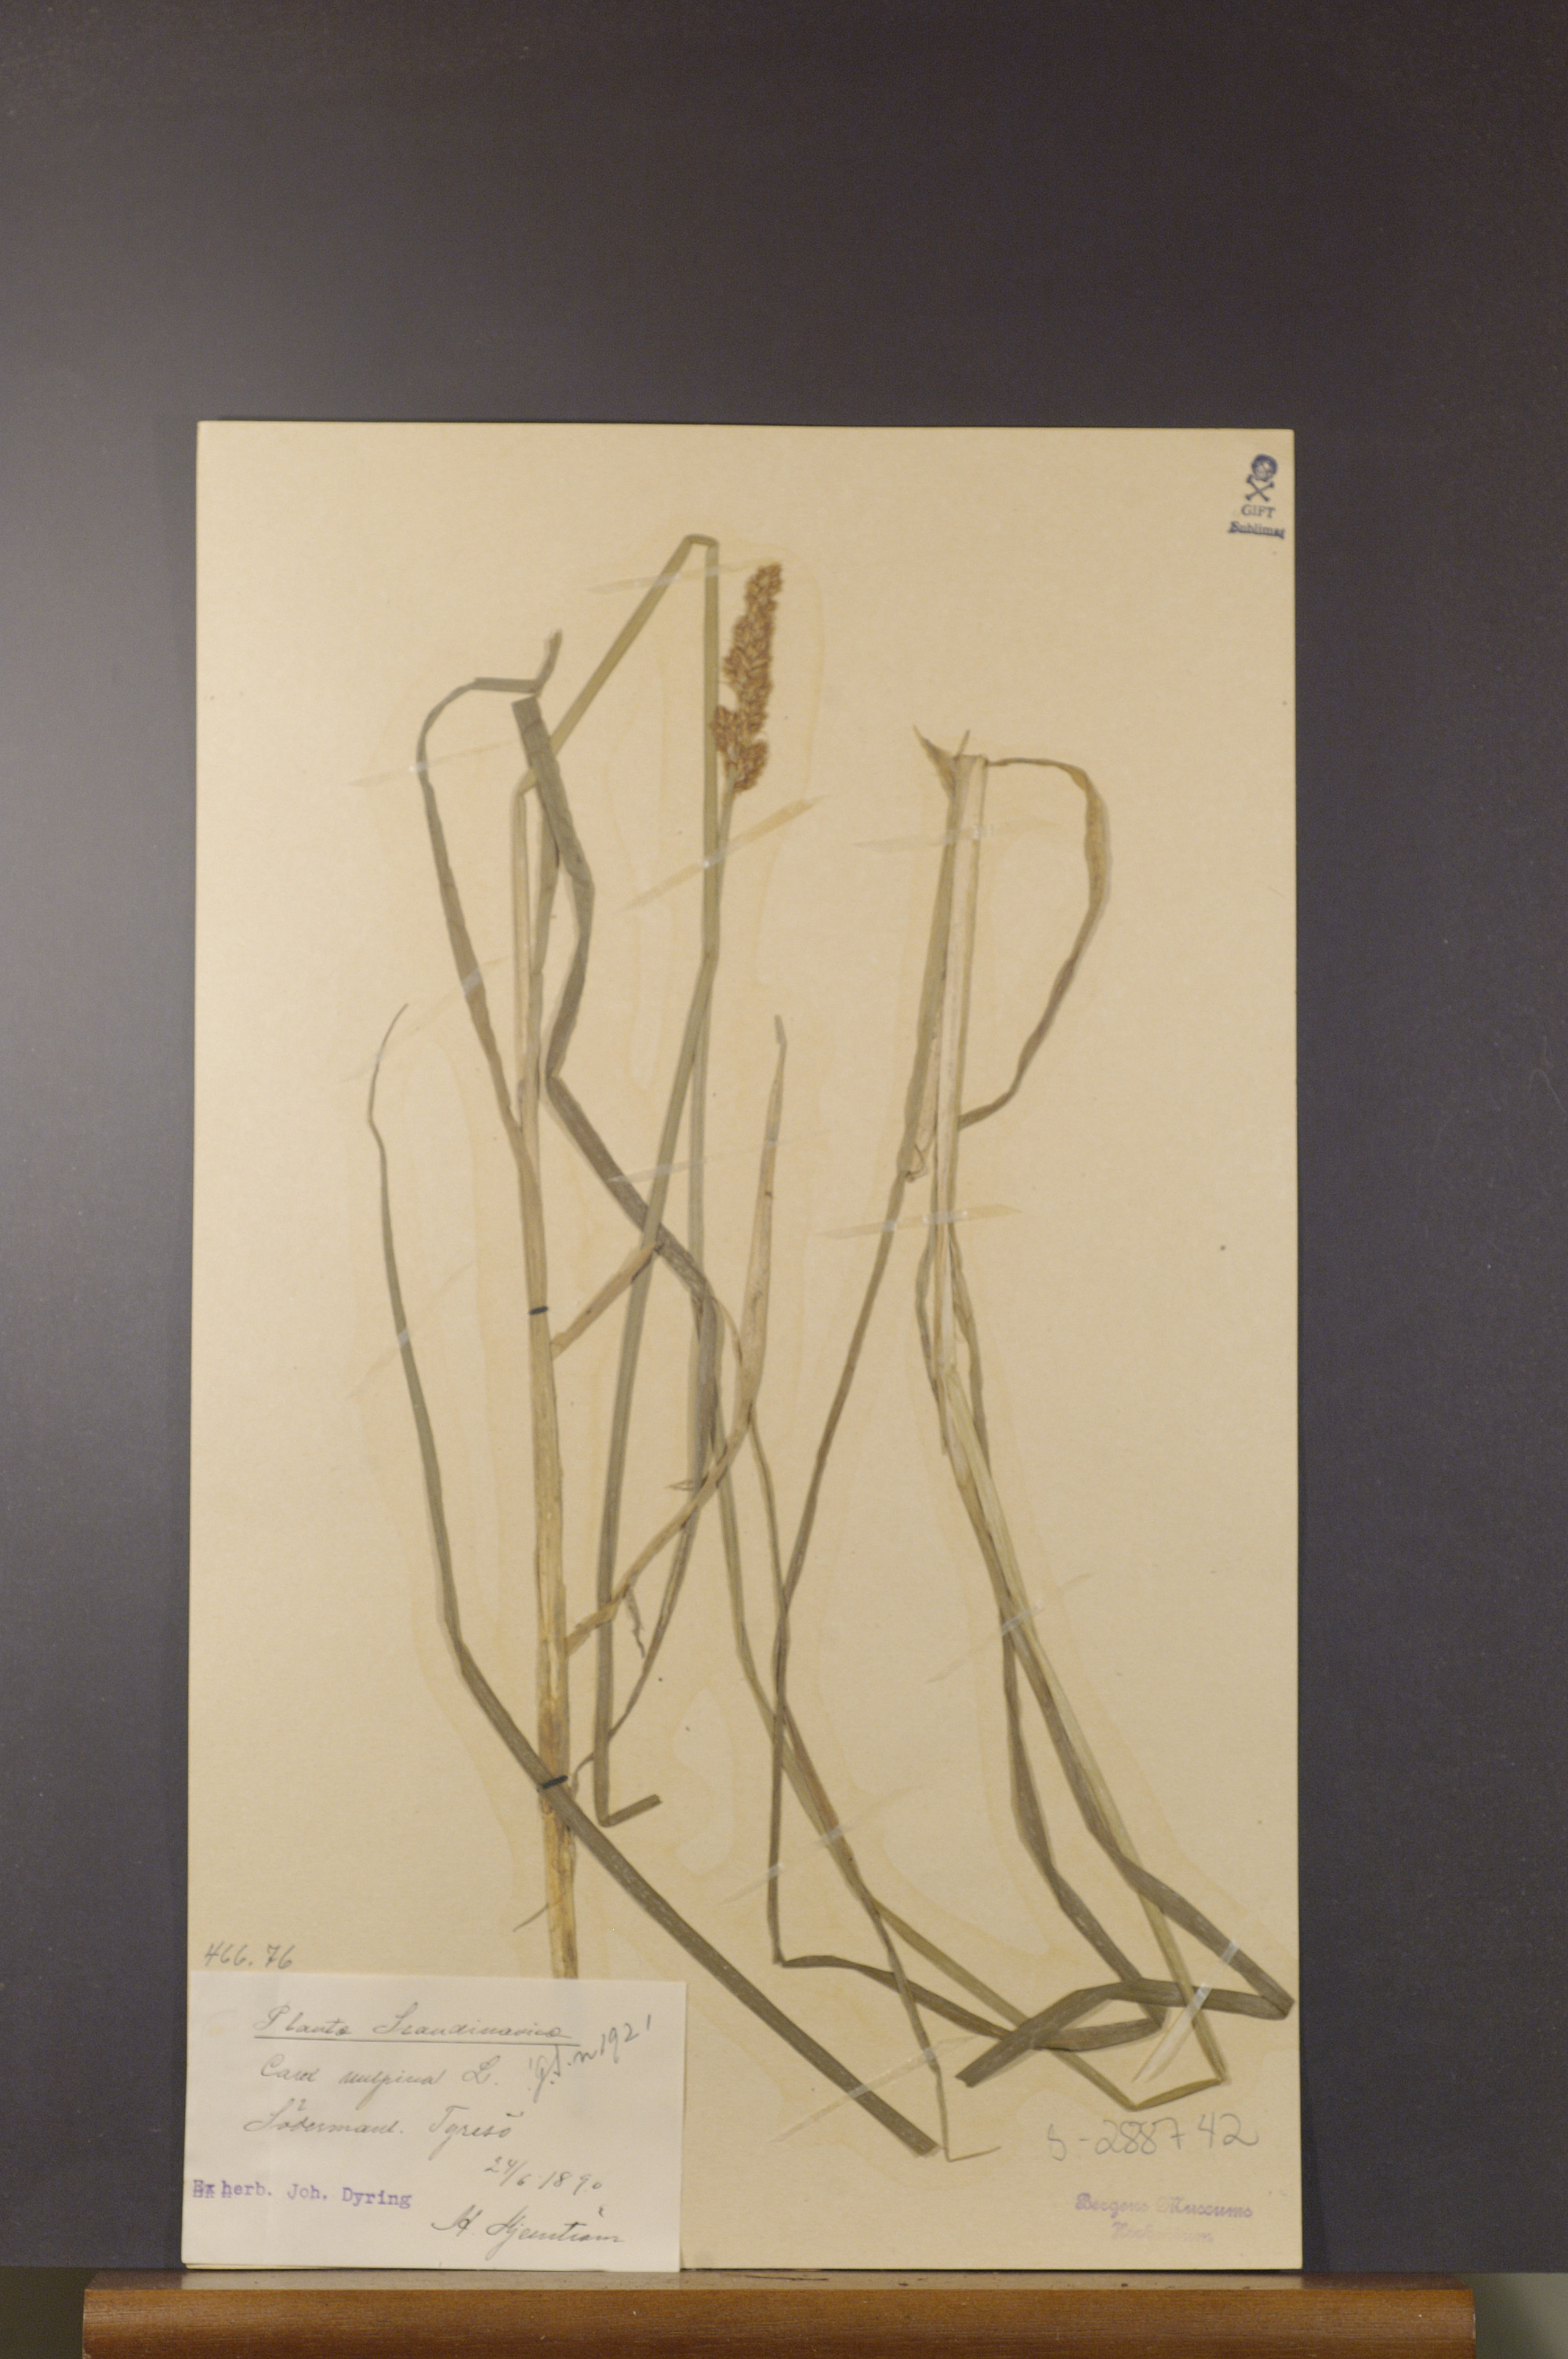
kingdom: Plantae
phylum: Tracheophyta
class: Liliopsida
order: Poales
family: Cyperaceae
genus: Carex
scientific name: Carex vulpina
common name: True fox-sedge
